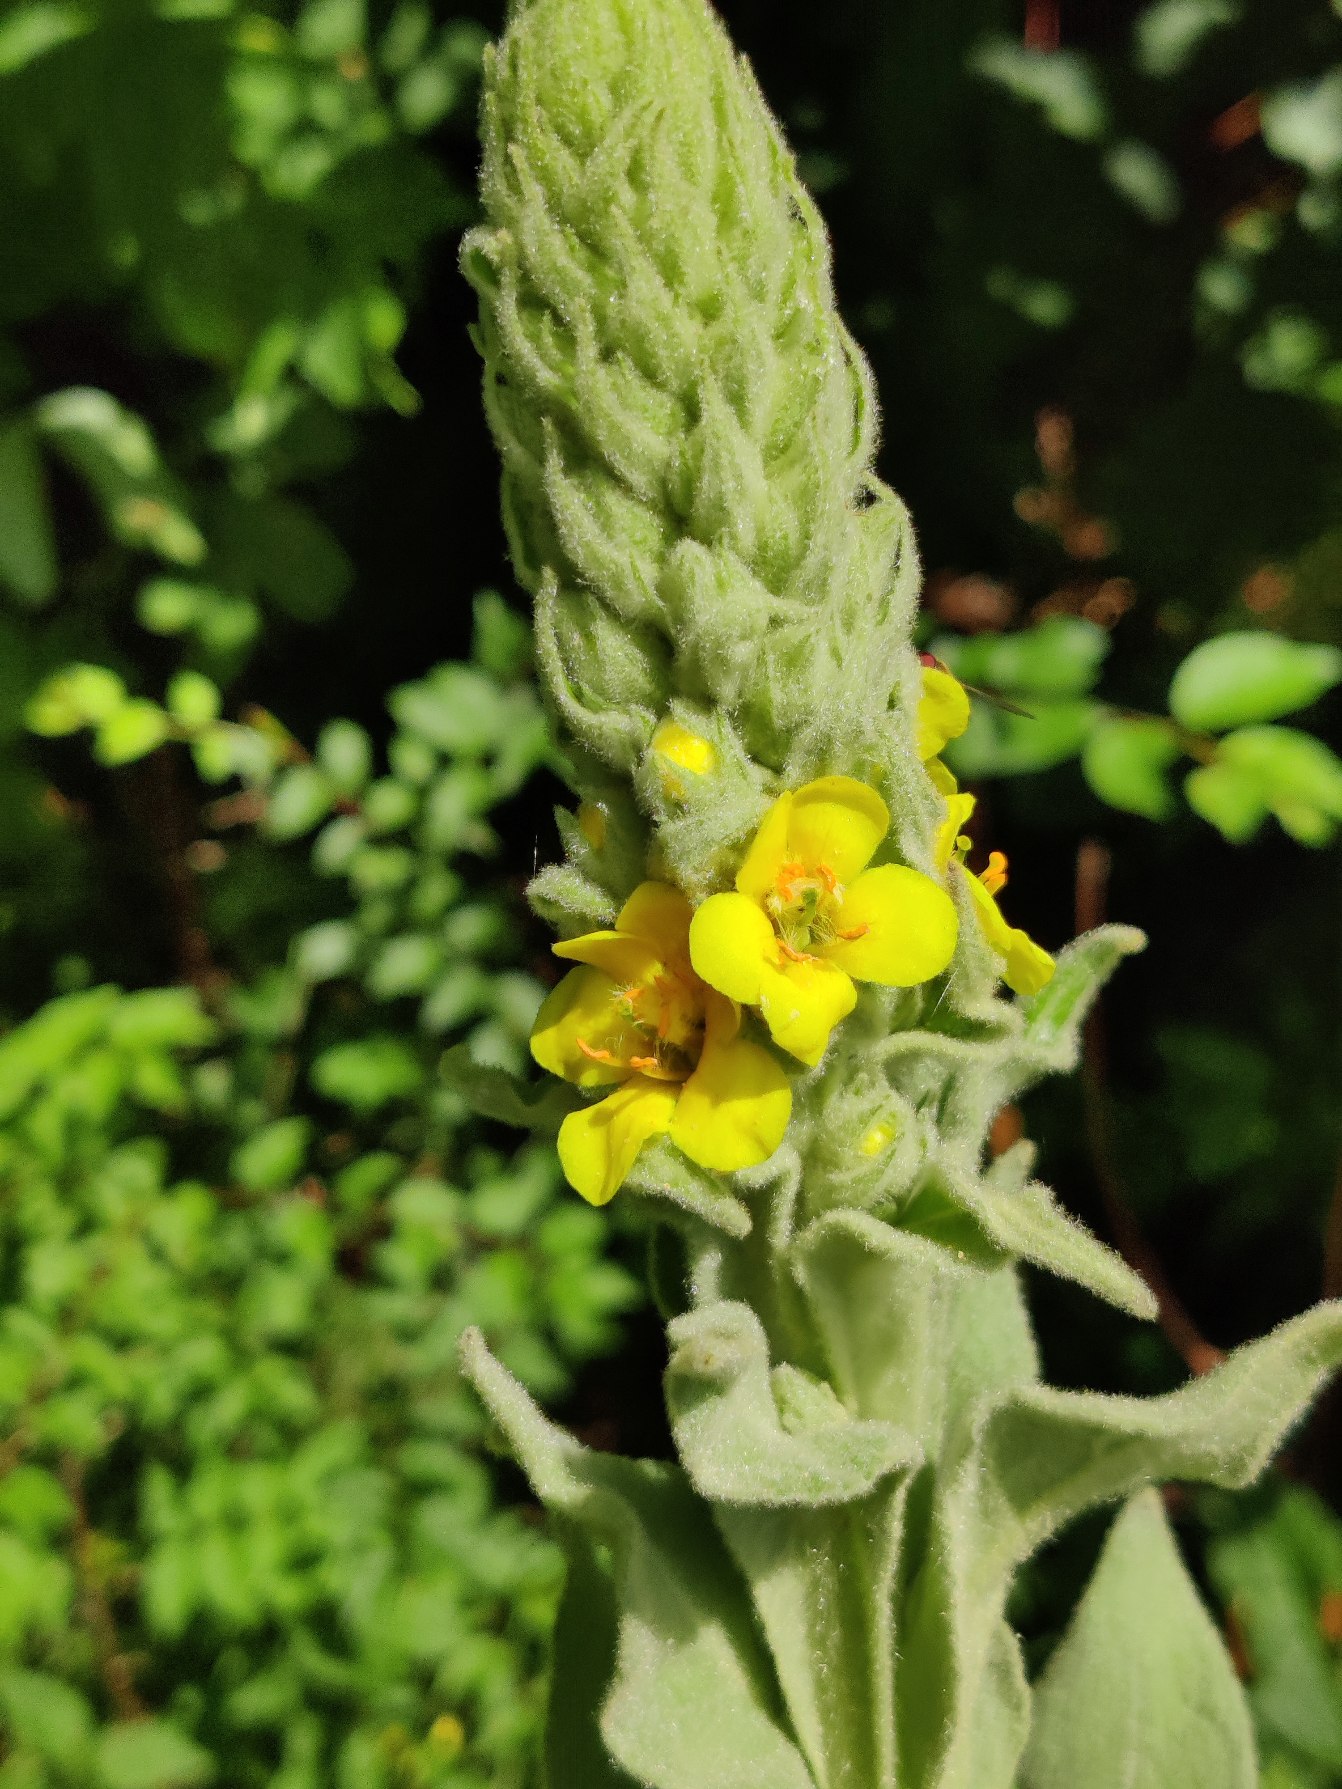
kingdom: Plantae
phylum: Tracheophyta
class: Magnoliopsida
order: Lamiales
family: Scrophulariaceae
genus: Verbascum
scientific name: Verbascum thapsus
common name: Filtbladet kongelys
